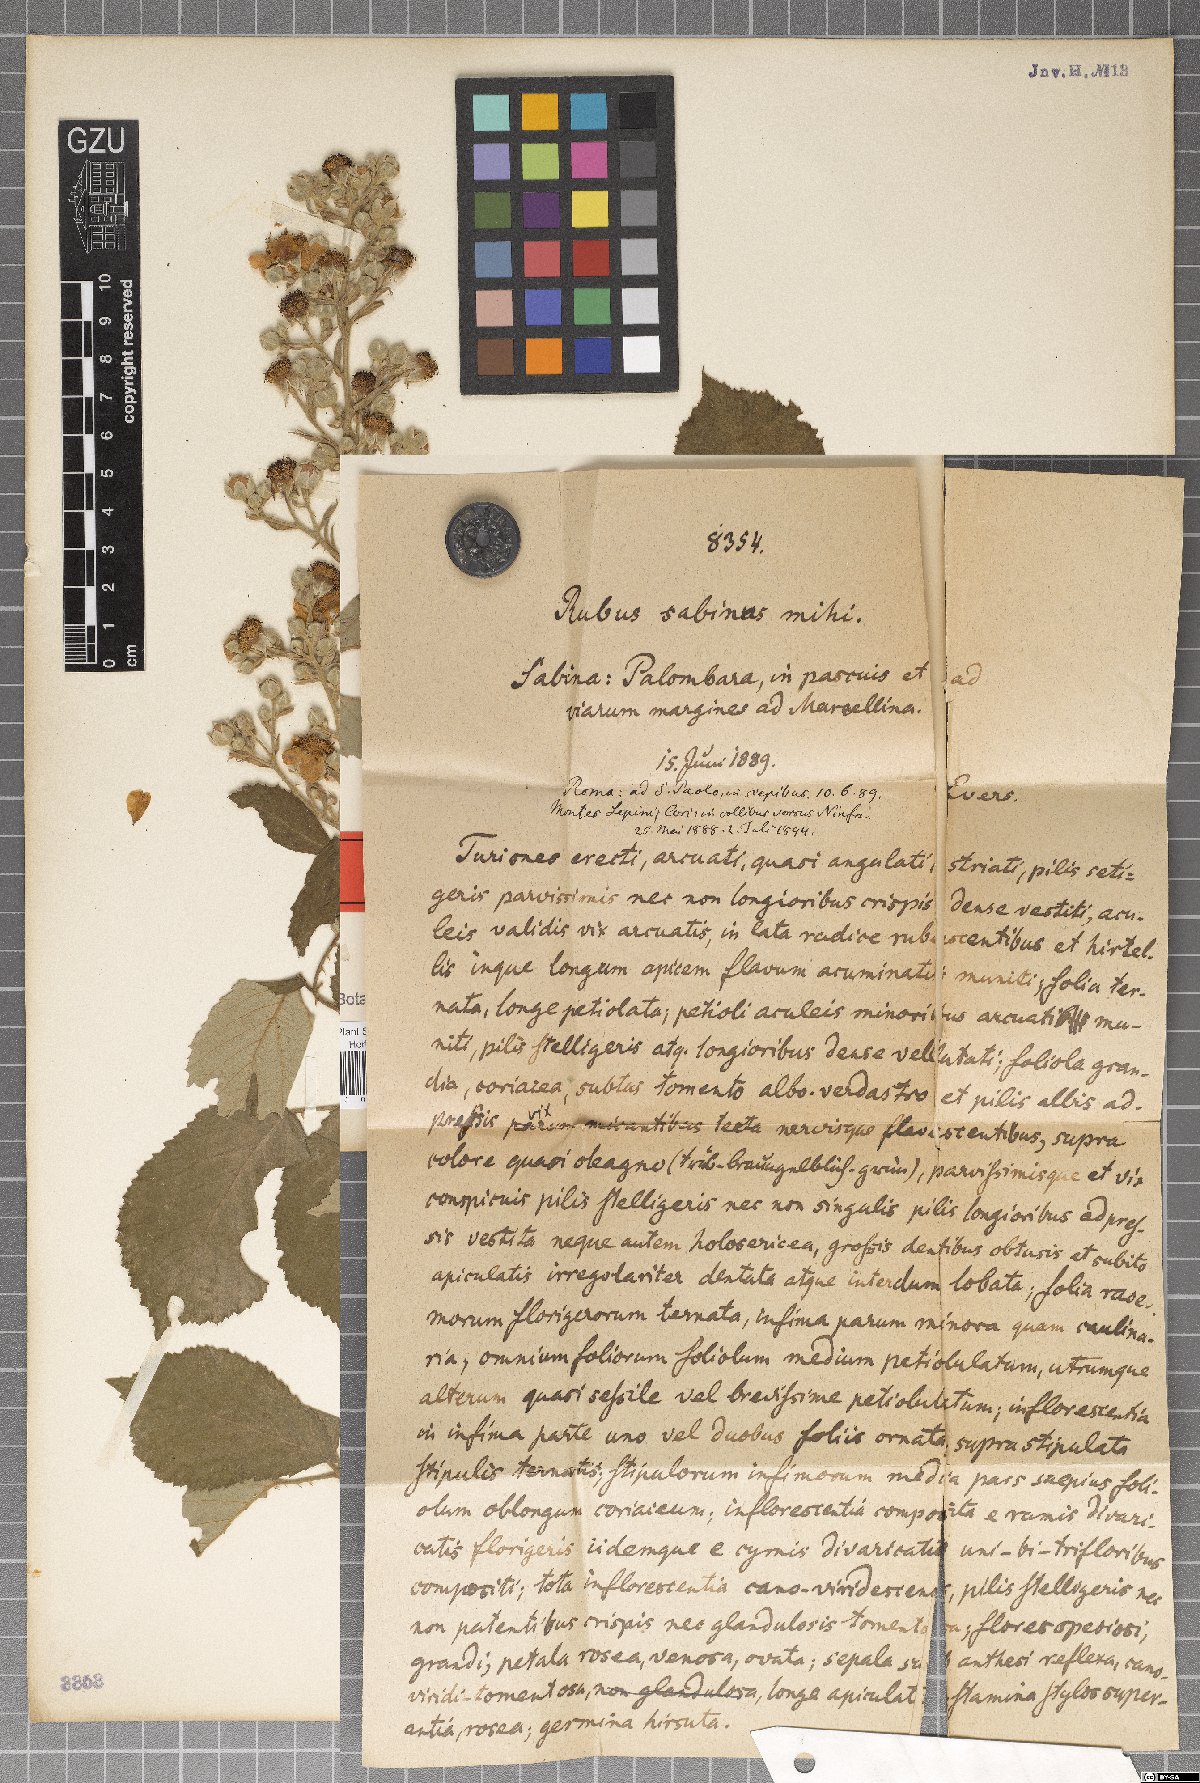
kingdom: Plantae
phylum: Tracheophyta
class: Magnoliopsida
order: Rosales
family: Rosaceae
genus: Rubus
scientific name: Rubus sabinus
